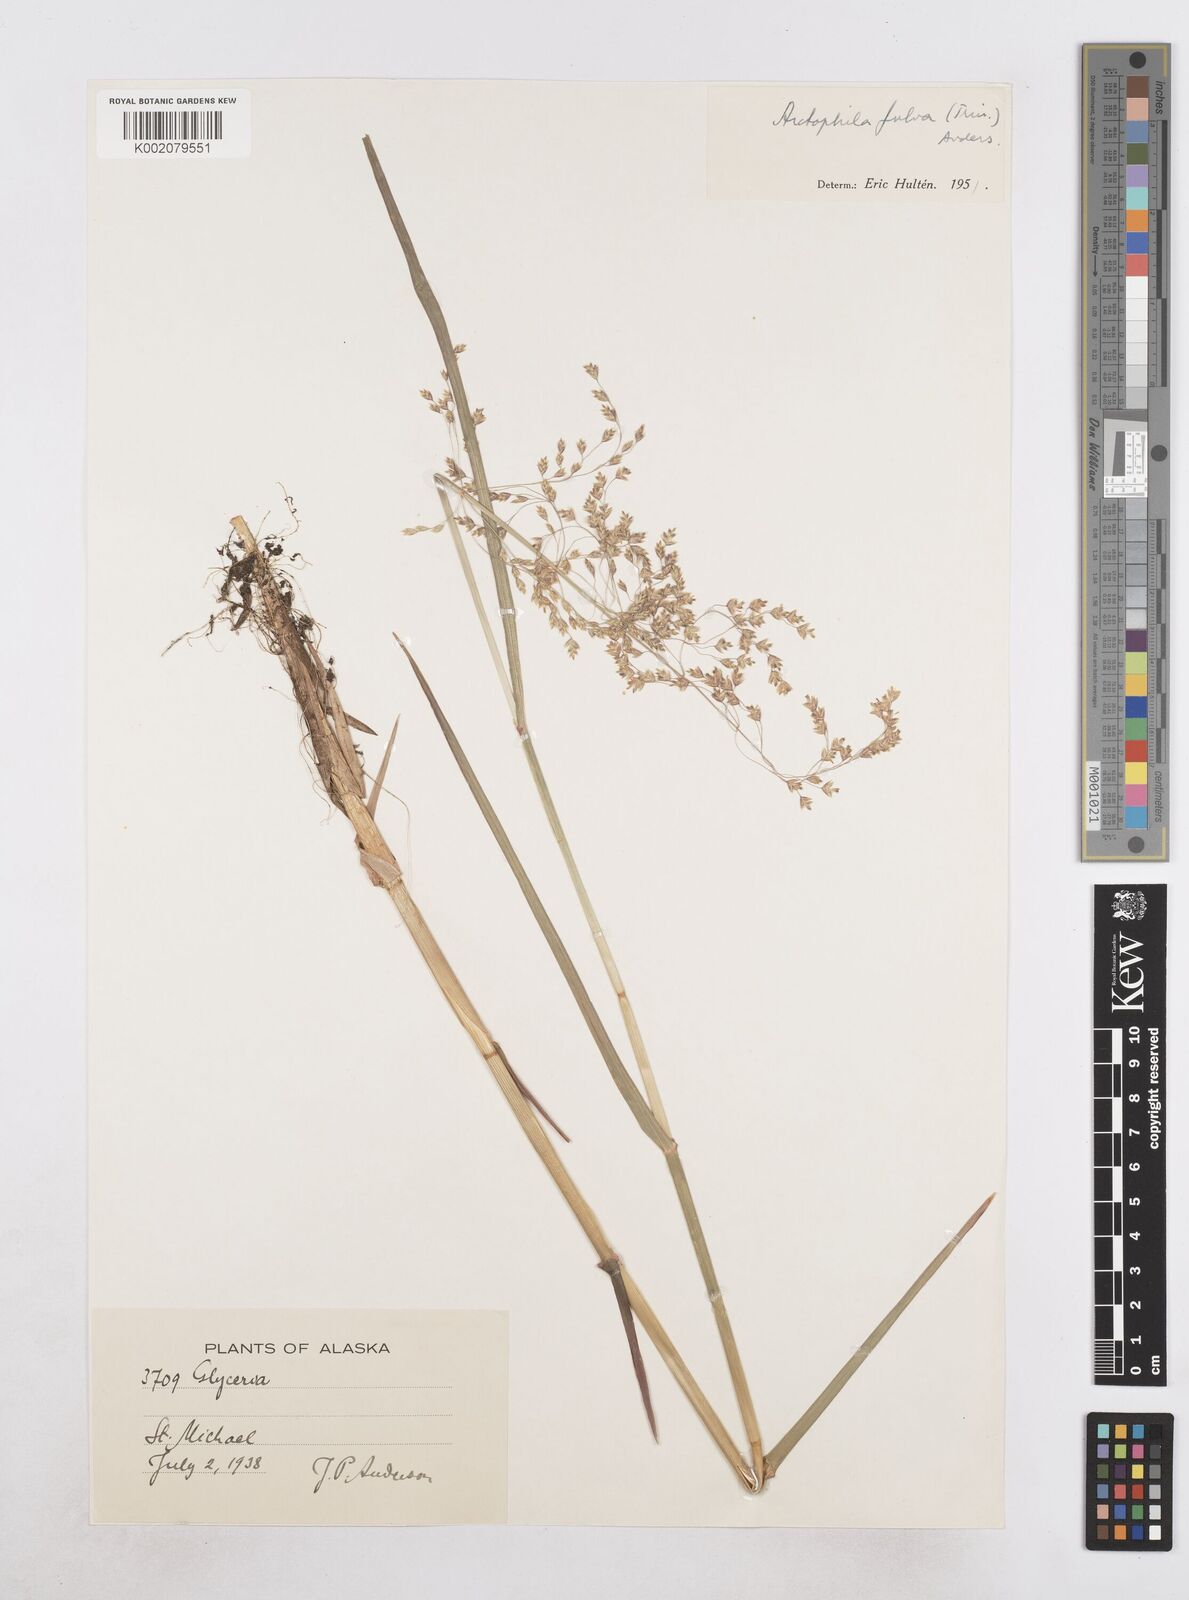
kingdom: Plantae
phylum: Tracheophyta
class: Liliopsida
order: Poales
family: Poaceae
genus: Dupontia
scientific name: Dupontia fulva
